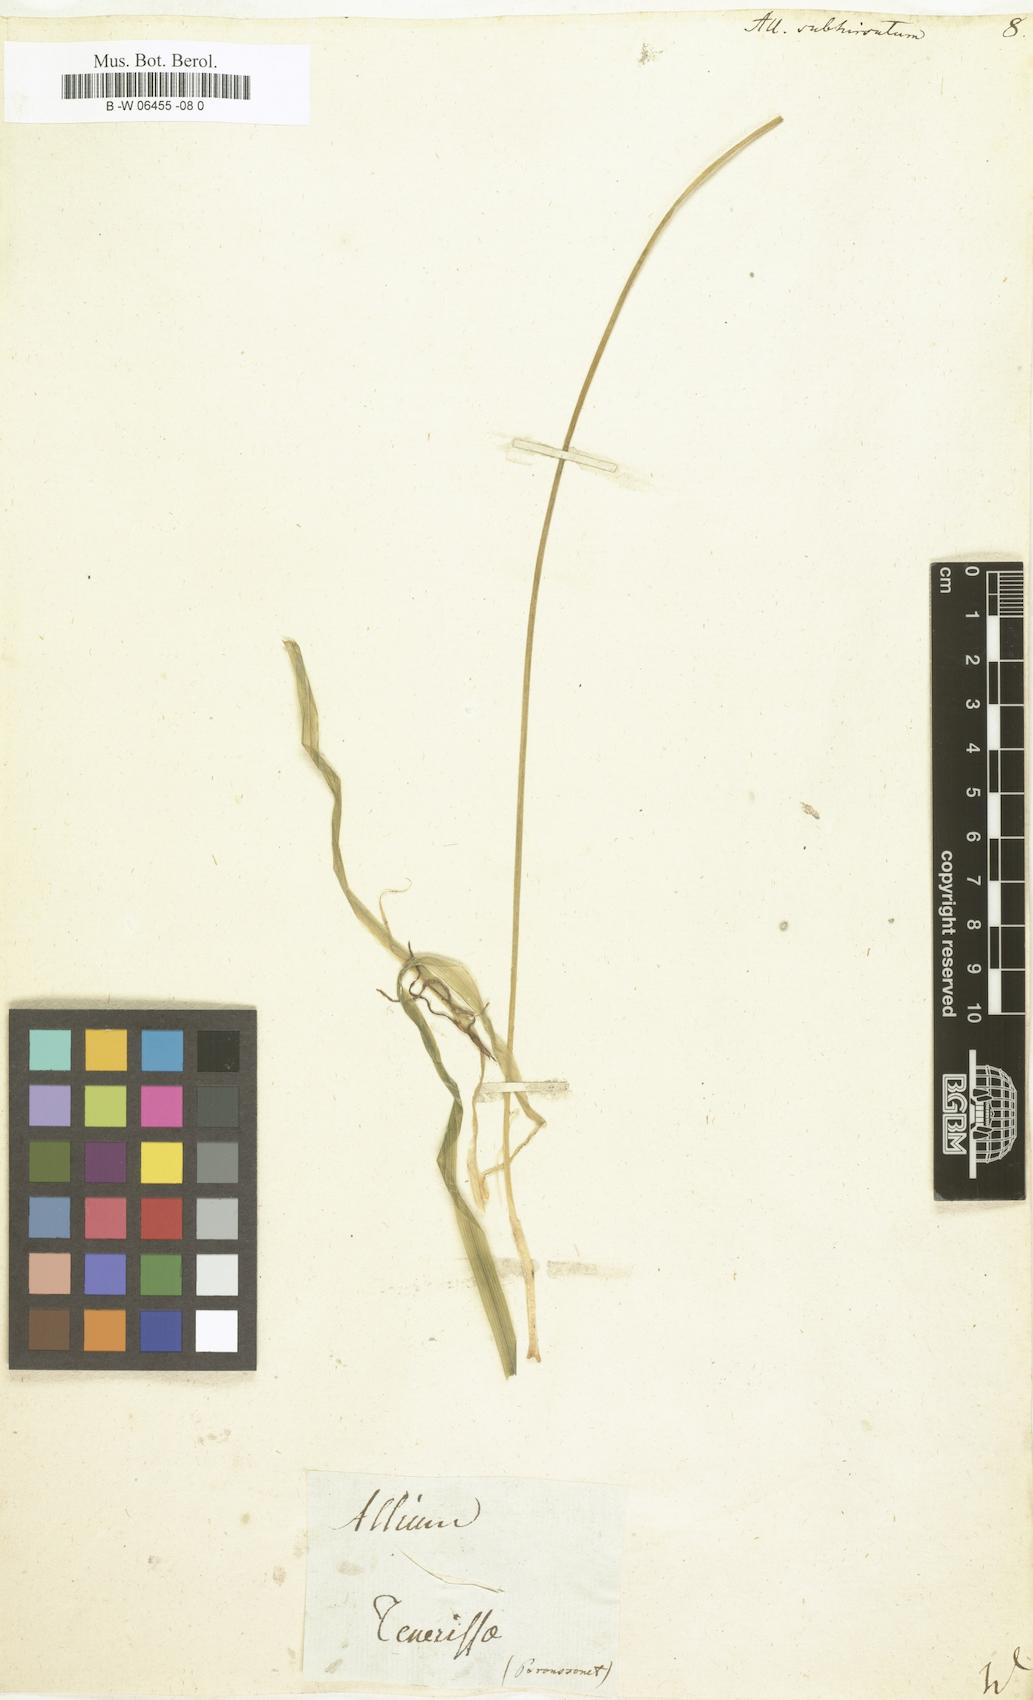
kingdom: Plantae
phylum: Tracheophyta
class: Liliopsida
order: Asparagales
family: Amaryllidaceae
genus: Allium
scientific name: Allium subhirsutum
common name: Hairy garlic
